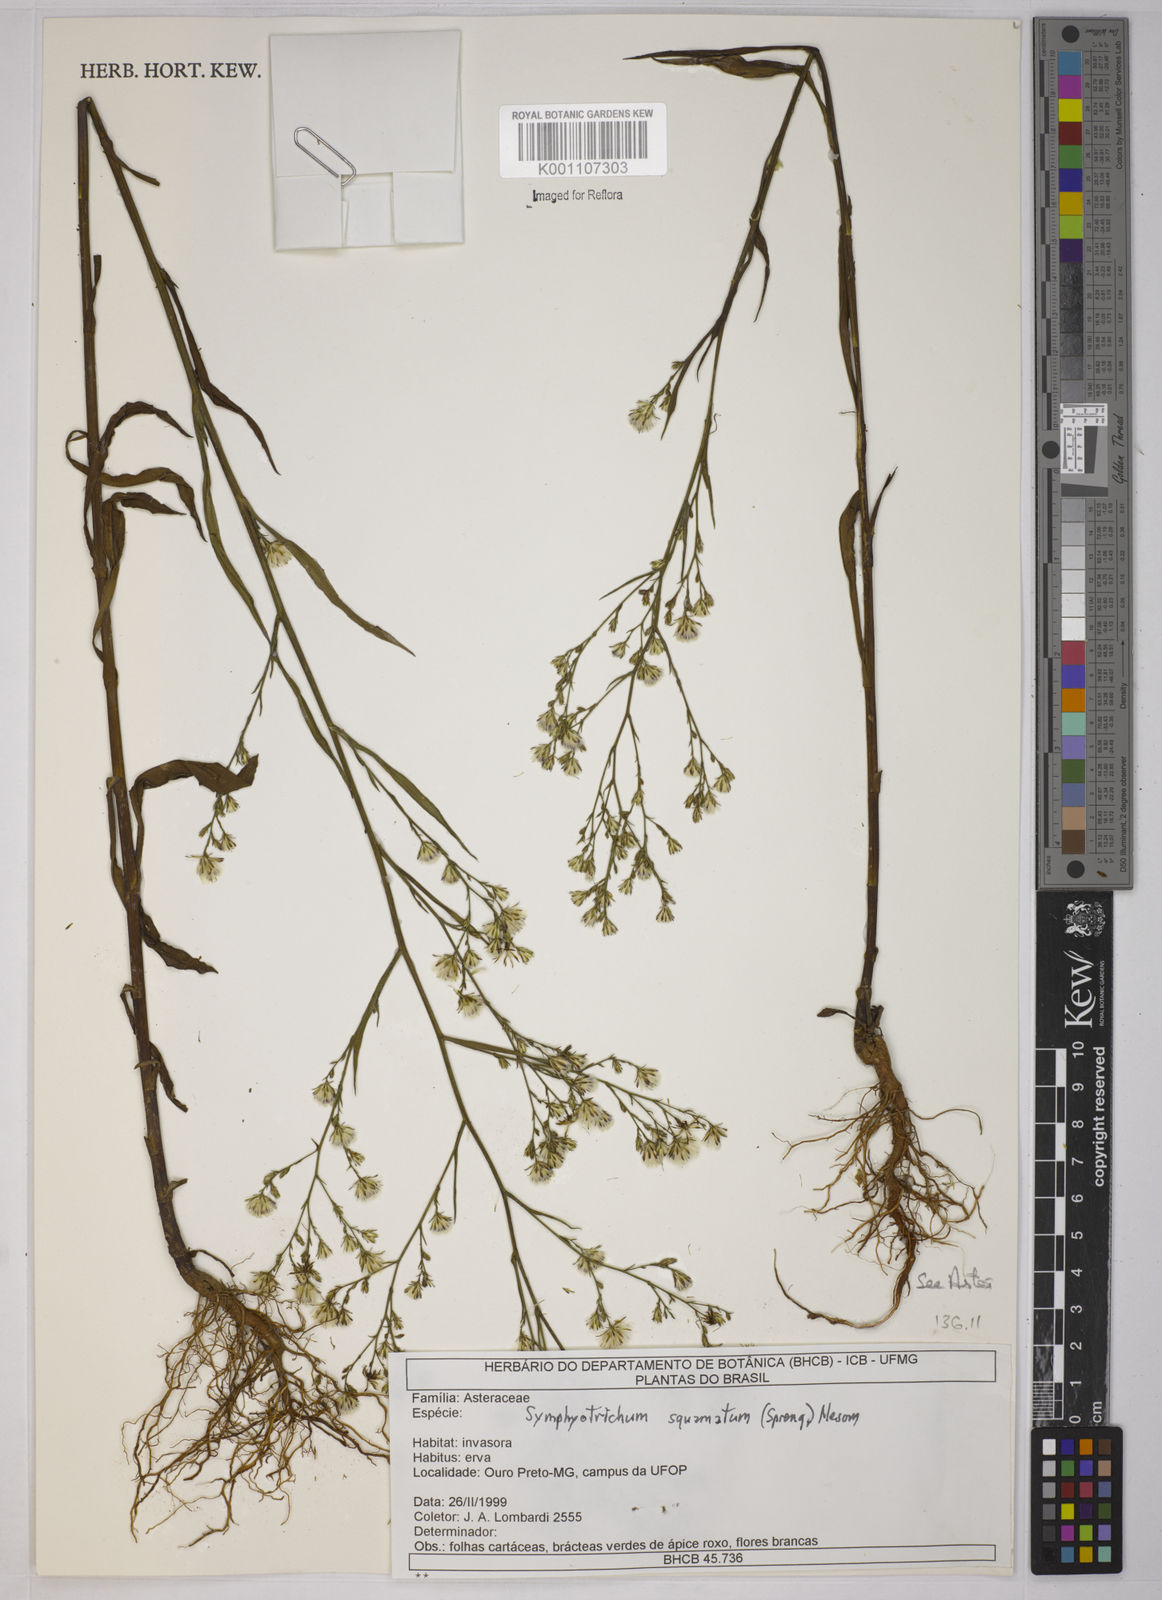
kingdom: Plantae
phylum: Tracheophyta
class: Magnoliopsida
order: Asterales
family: Asteraceae
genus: Symphyotrichum
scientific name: Symphyotrichum
